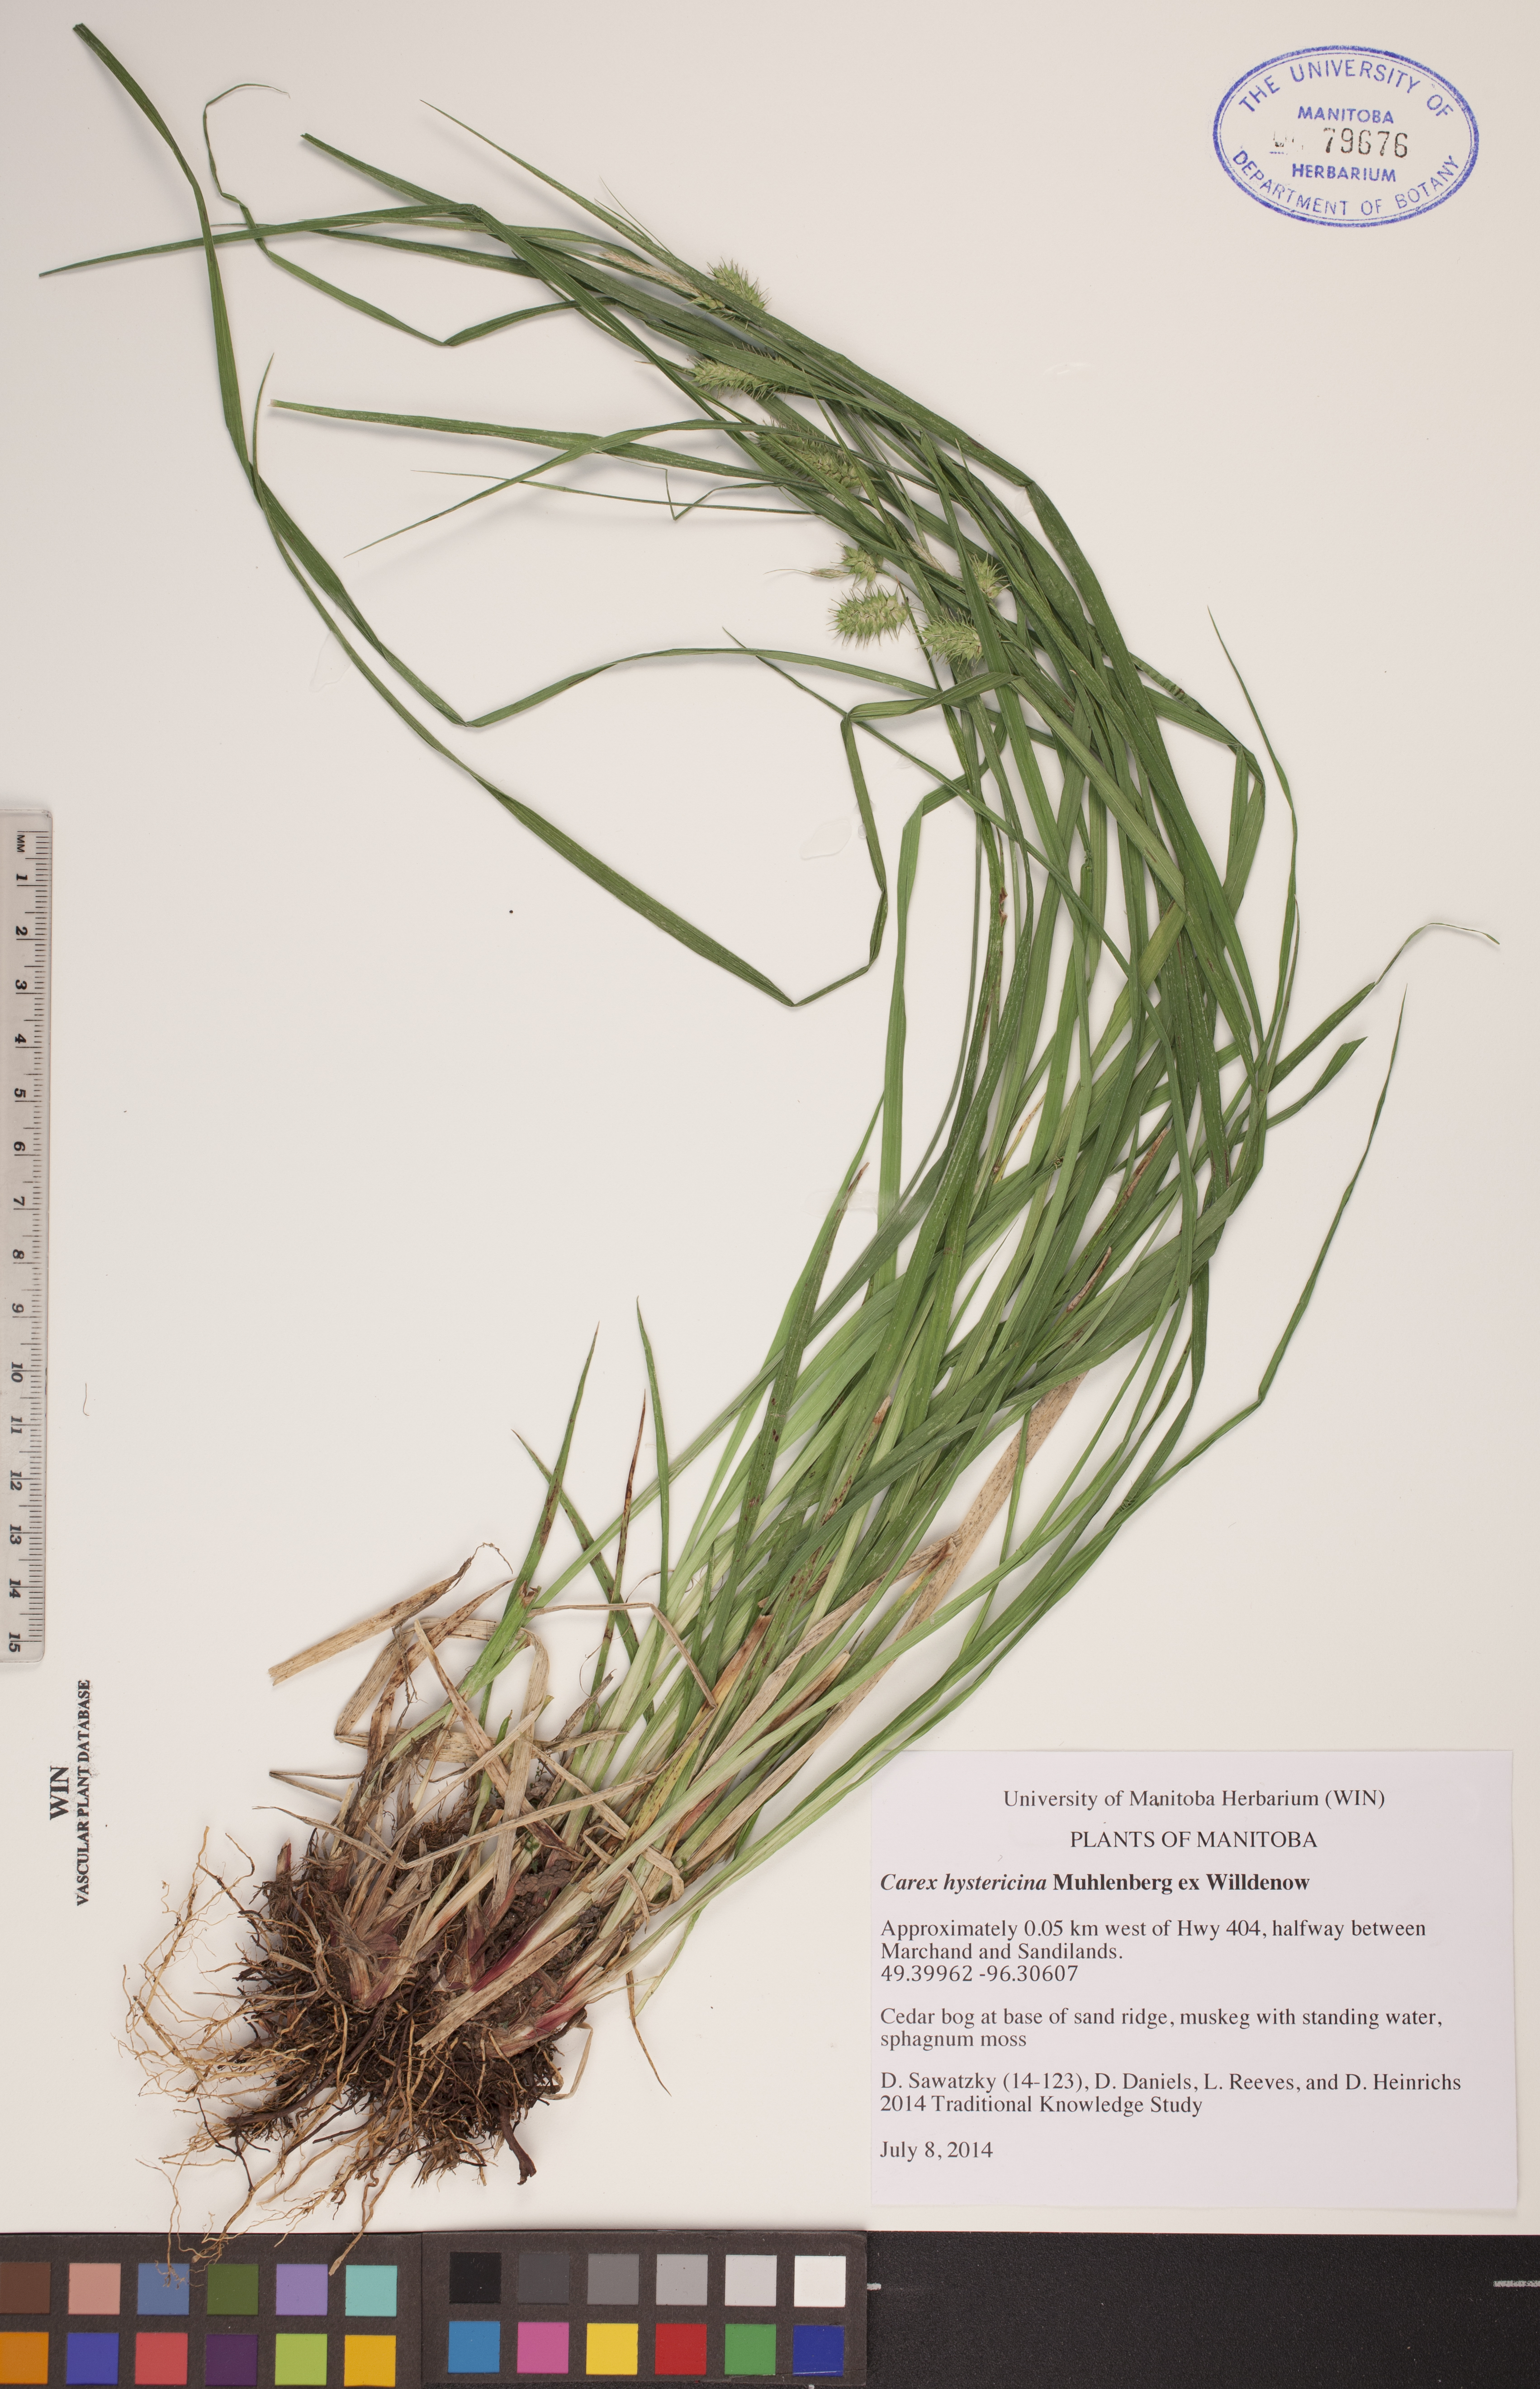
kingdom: Plantae
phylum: Tracheophyta
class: Liliopsida
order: Poales
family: Cyperaceae
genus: Carex
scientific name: Carex hystericina
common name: Bottlebrush sedge
